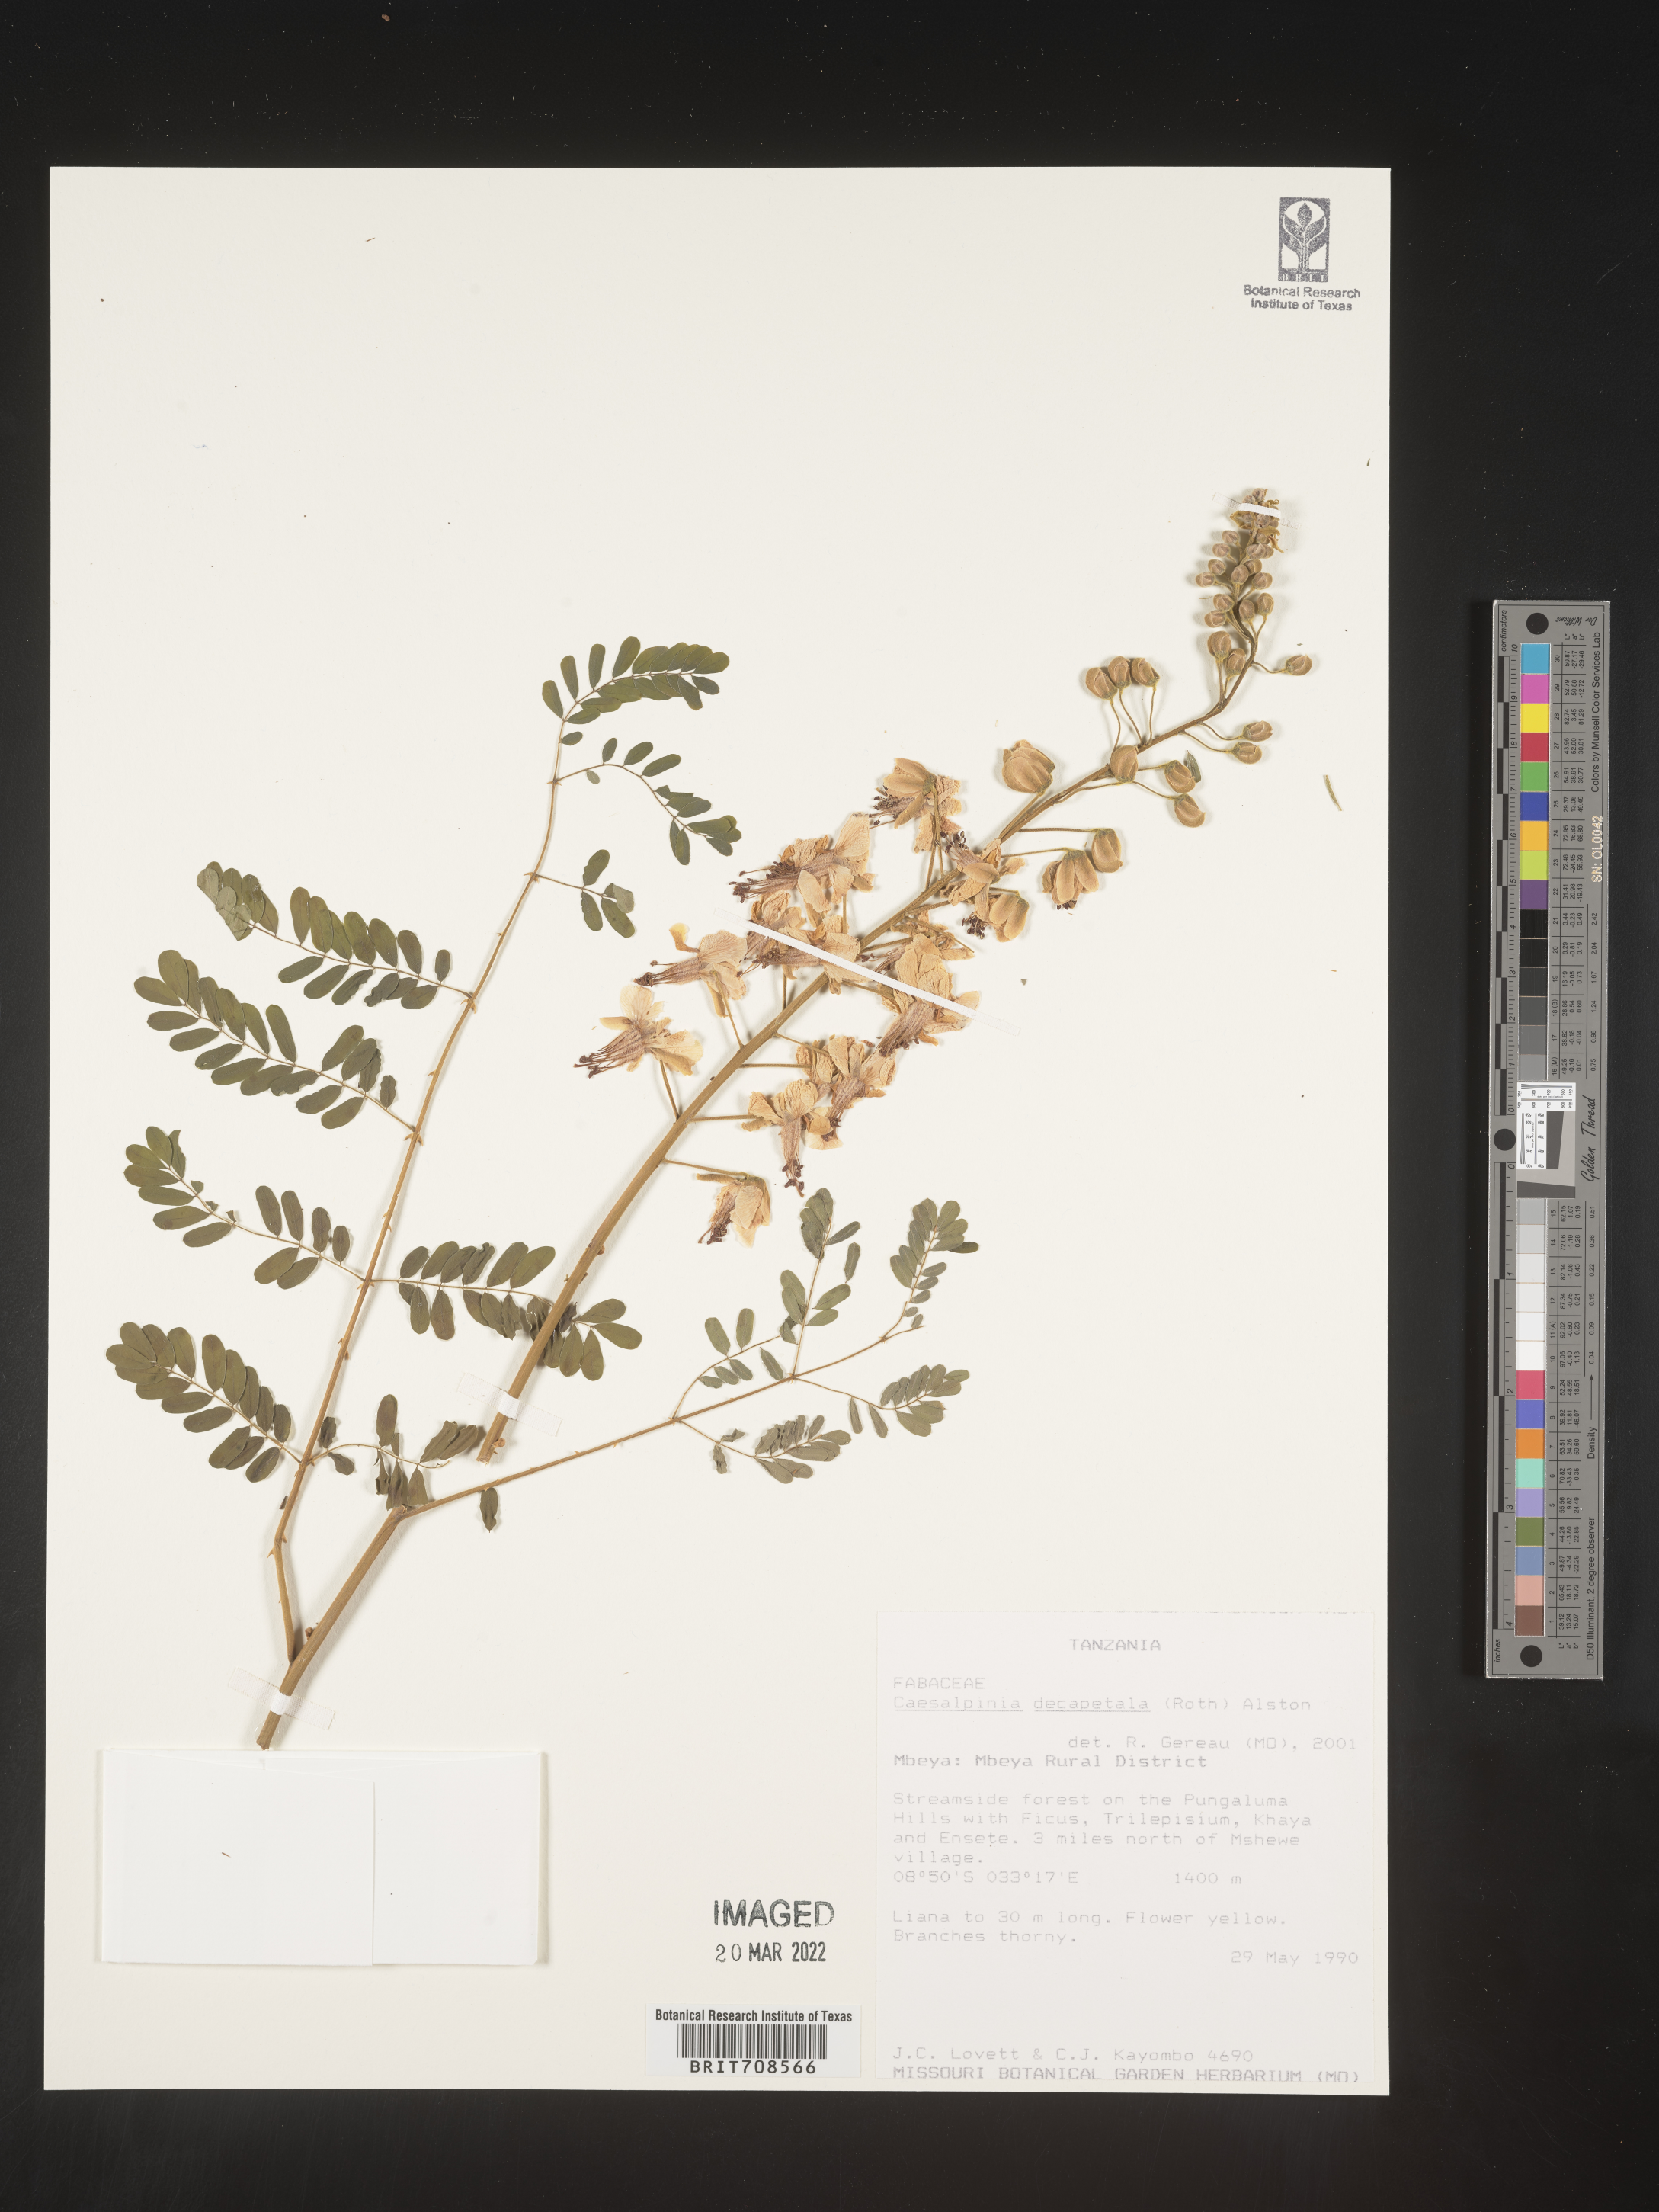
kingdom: Plantae
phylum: Tracheophyta
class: Magnoliopsida
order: Fabales
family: Fabaceae
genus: Caesalpinia
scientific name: Caesalpinia
